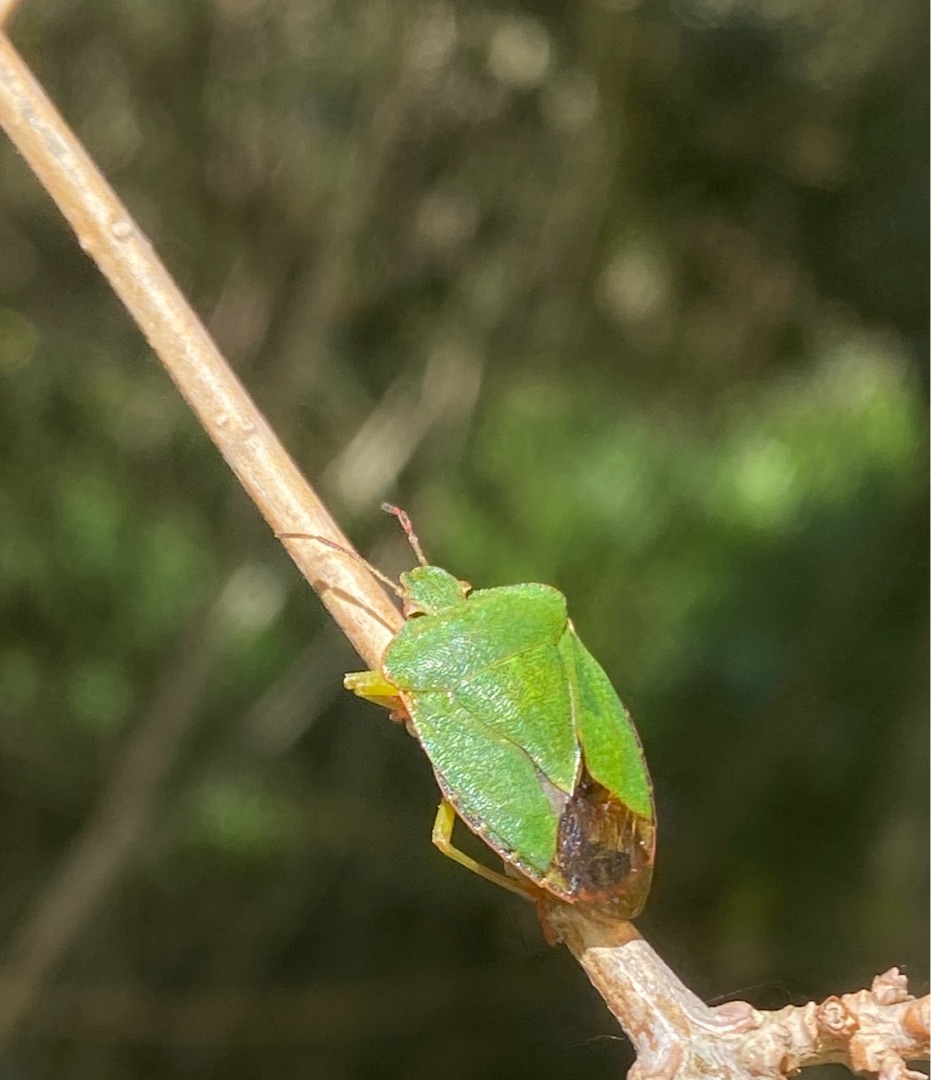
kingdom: Animalia
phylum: Arthropoda
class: Insecta
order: Hemiptera
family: Pentatomidae
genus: Palomena
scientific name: Palomena prasina
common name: Grøn bredtæge
